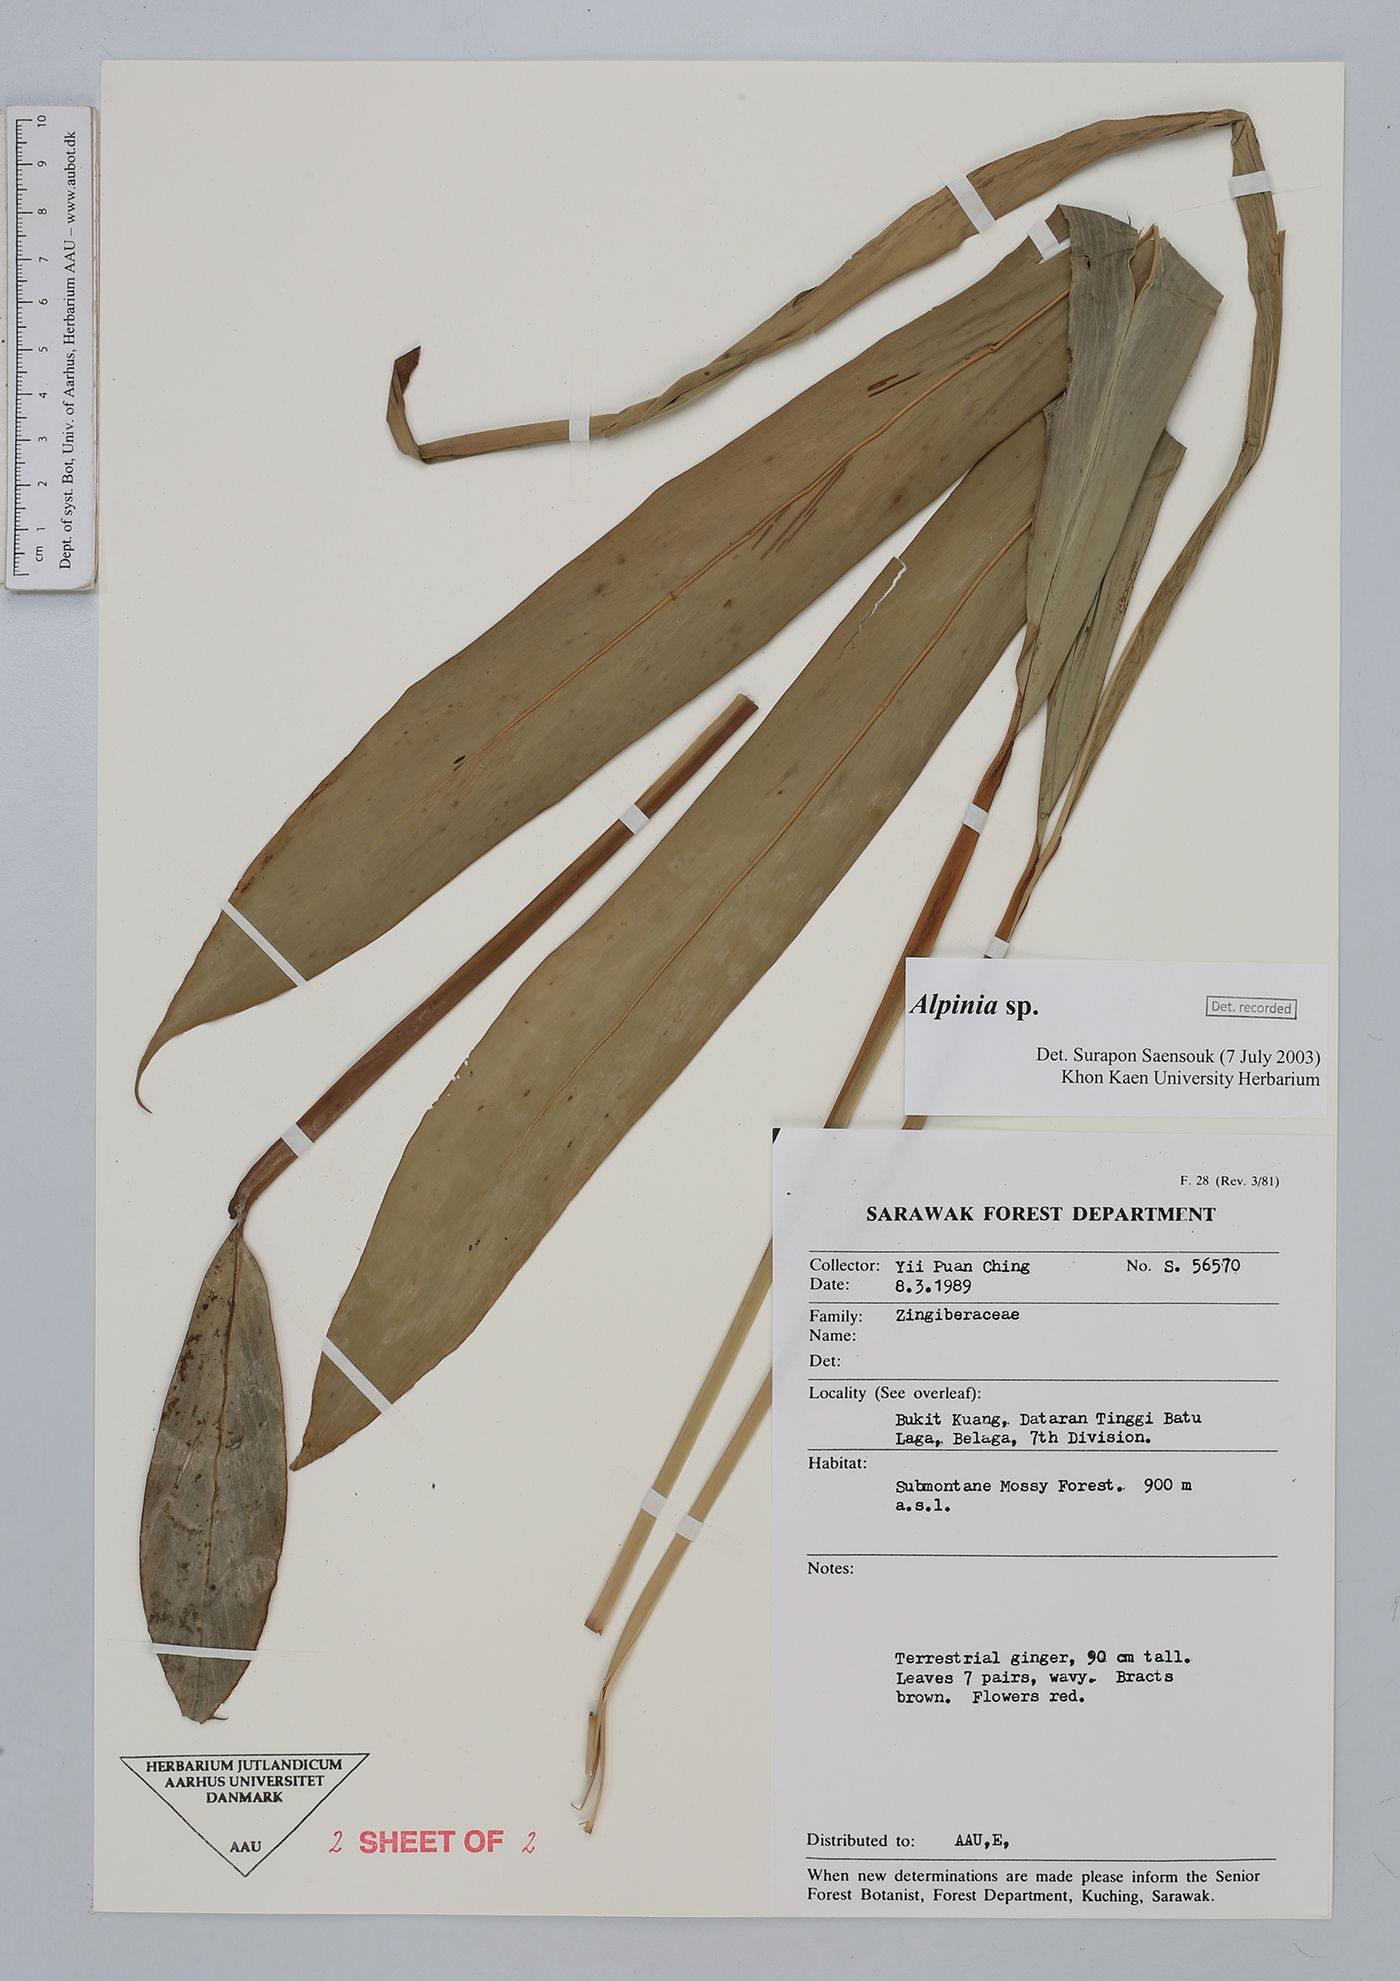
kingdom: Plantae
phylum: Tracheophyta
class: Liliopsida
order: Zingiberales
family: Zingiberaceae
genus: Alpinia
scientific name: Alpinia
